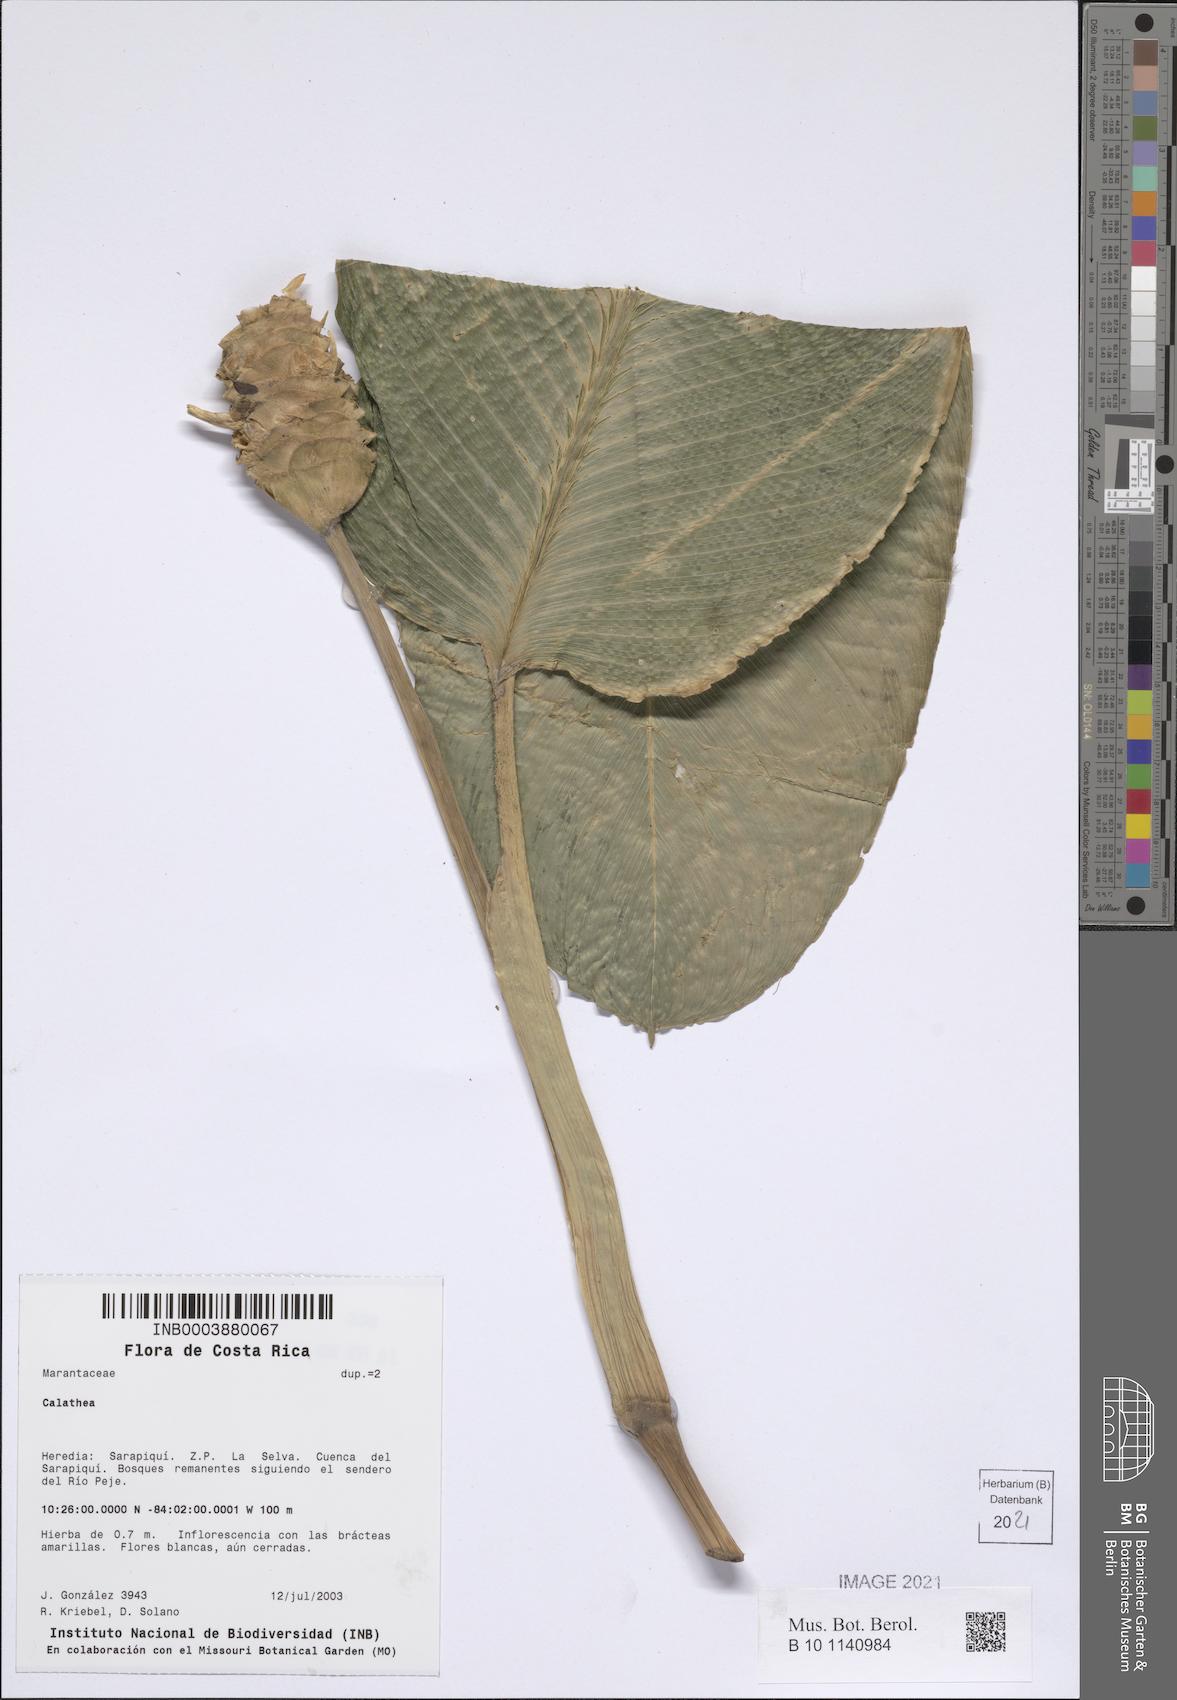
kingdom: Plantae
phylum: Tracheophyta
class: Liliopsida
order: Zingiberales
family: Marantaceae
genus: Calathea
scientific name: Calathea
